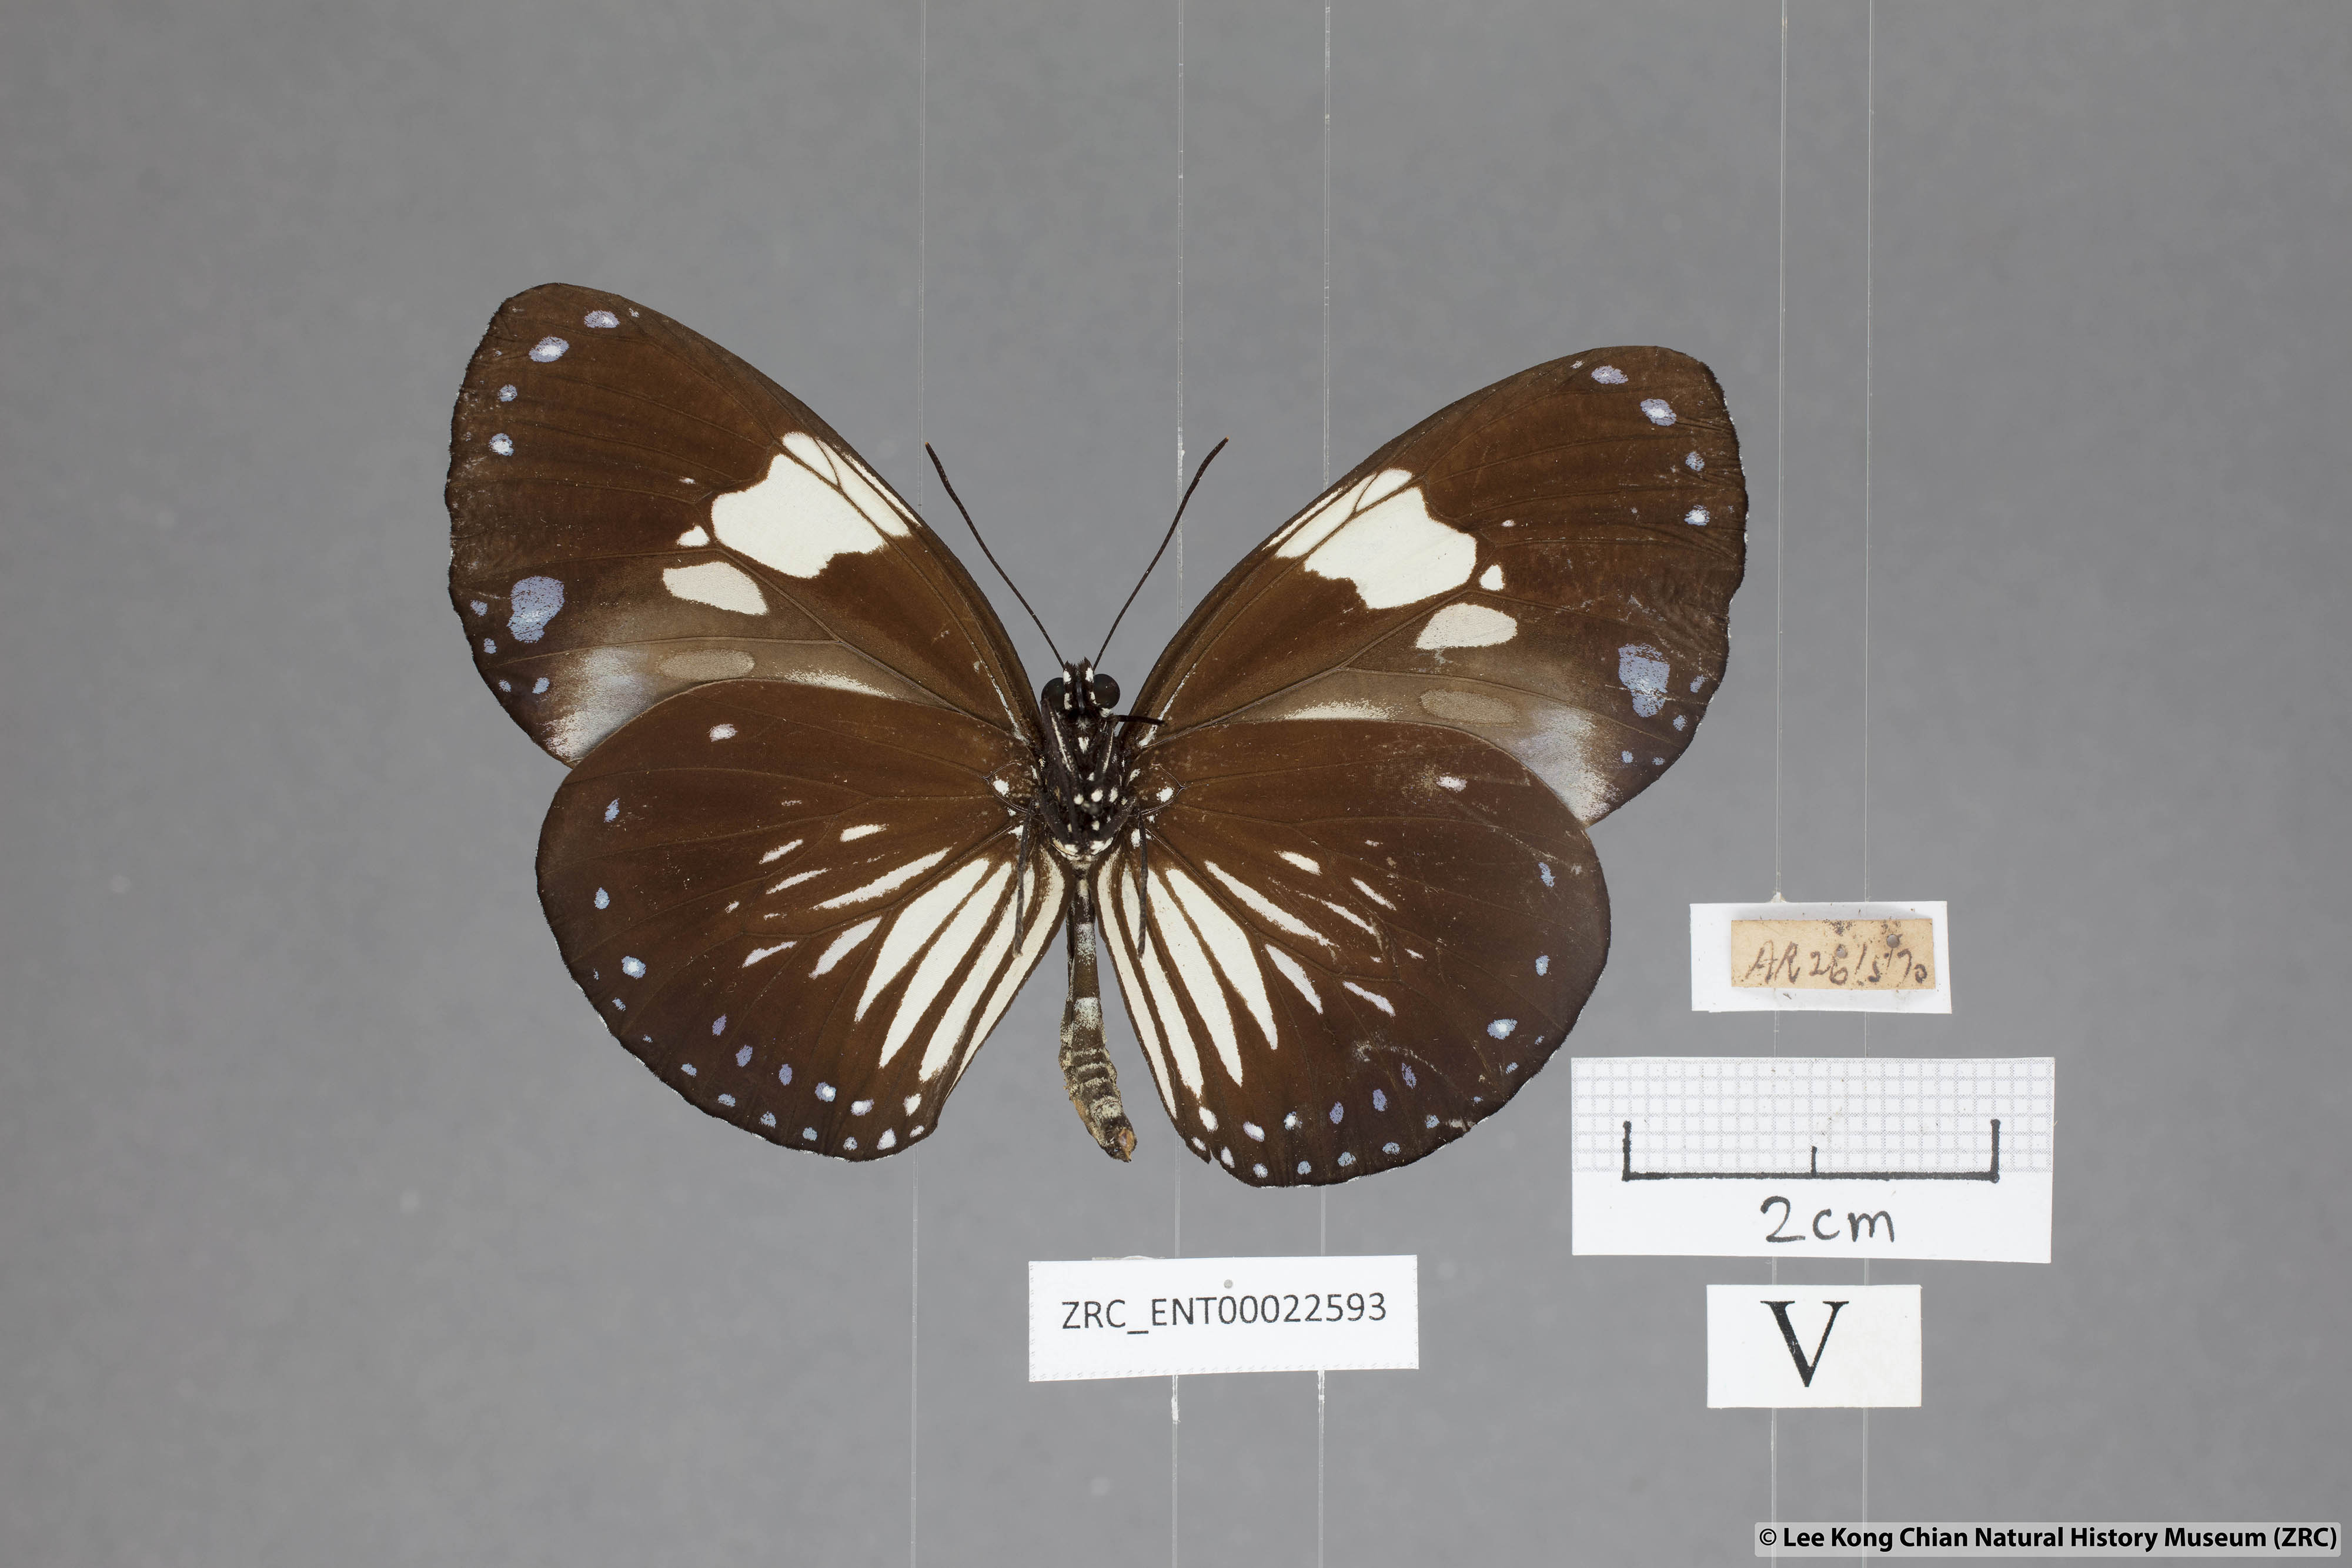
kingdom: Animalia
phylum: Arthropoda
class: Insecta
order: Lepidoptera
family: Nymphalidae
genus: Euploea
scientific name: Euploea diocletia
